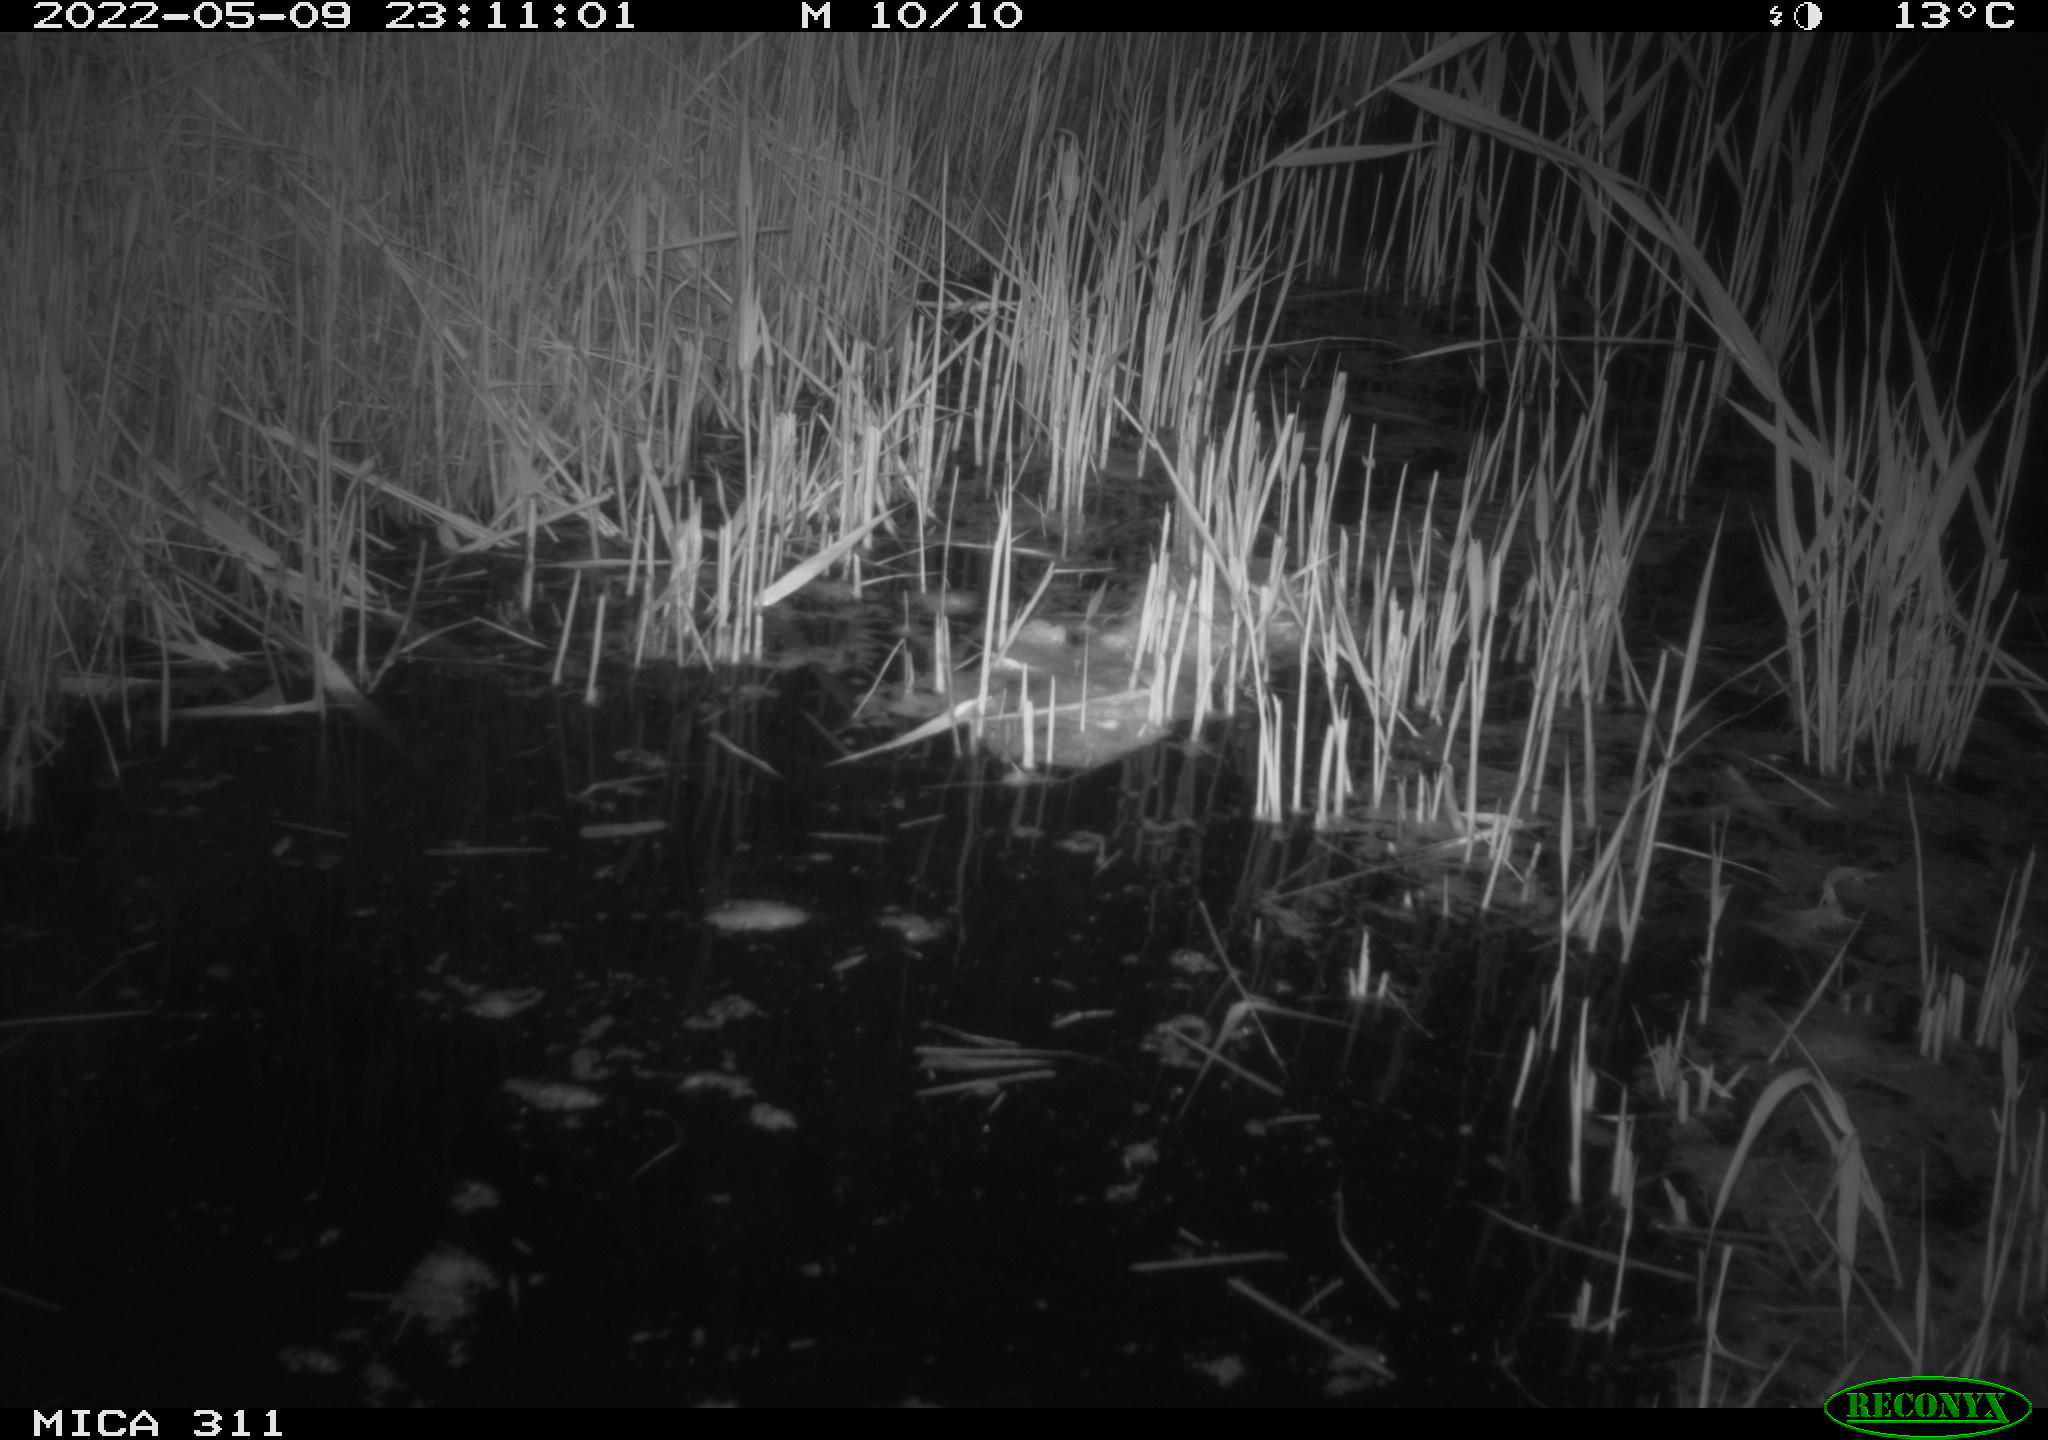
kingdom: Animalia
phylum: Chordata
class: Aves
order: Anseriformes
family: Anatidae
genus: Anas
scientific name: Anas
